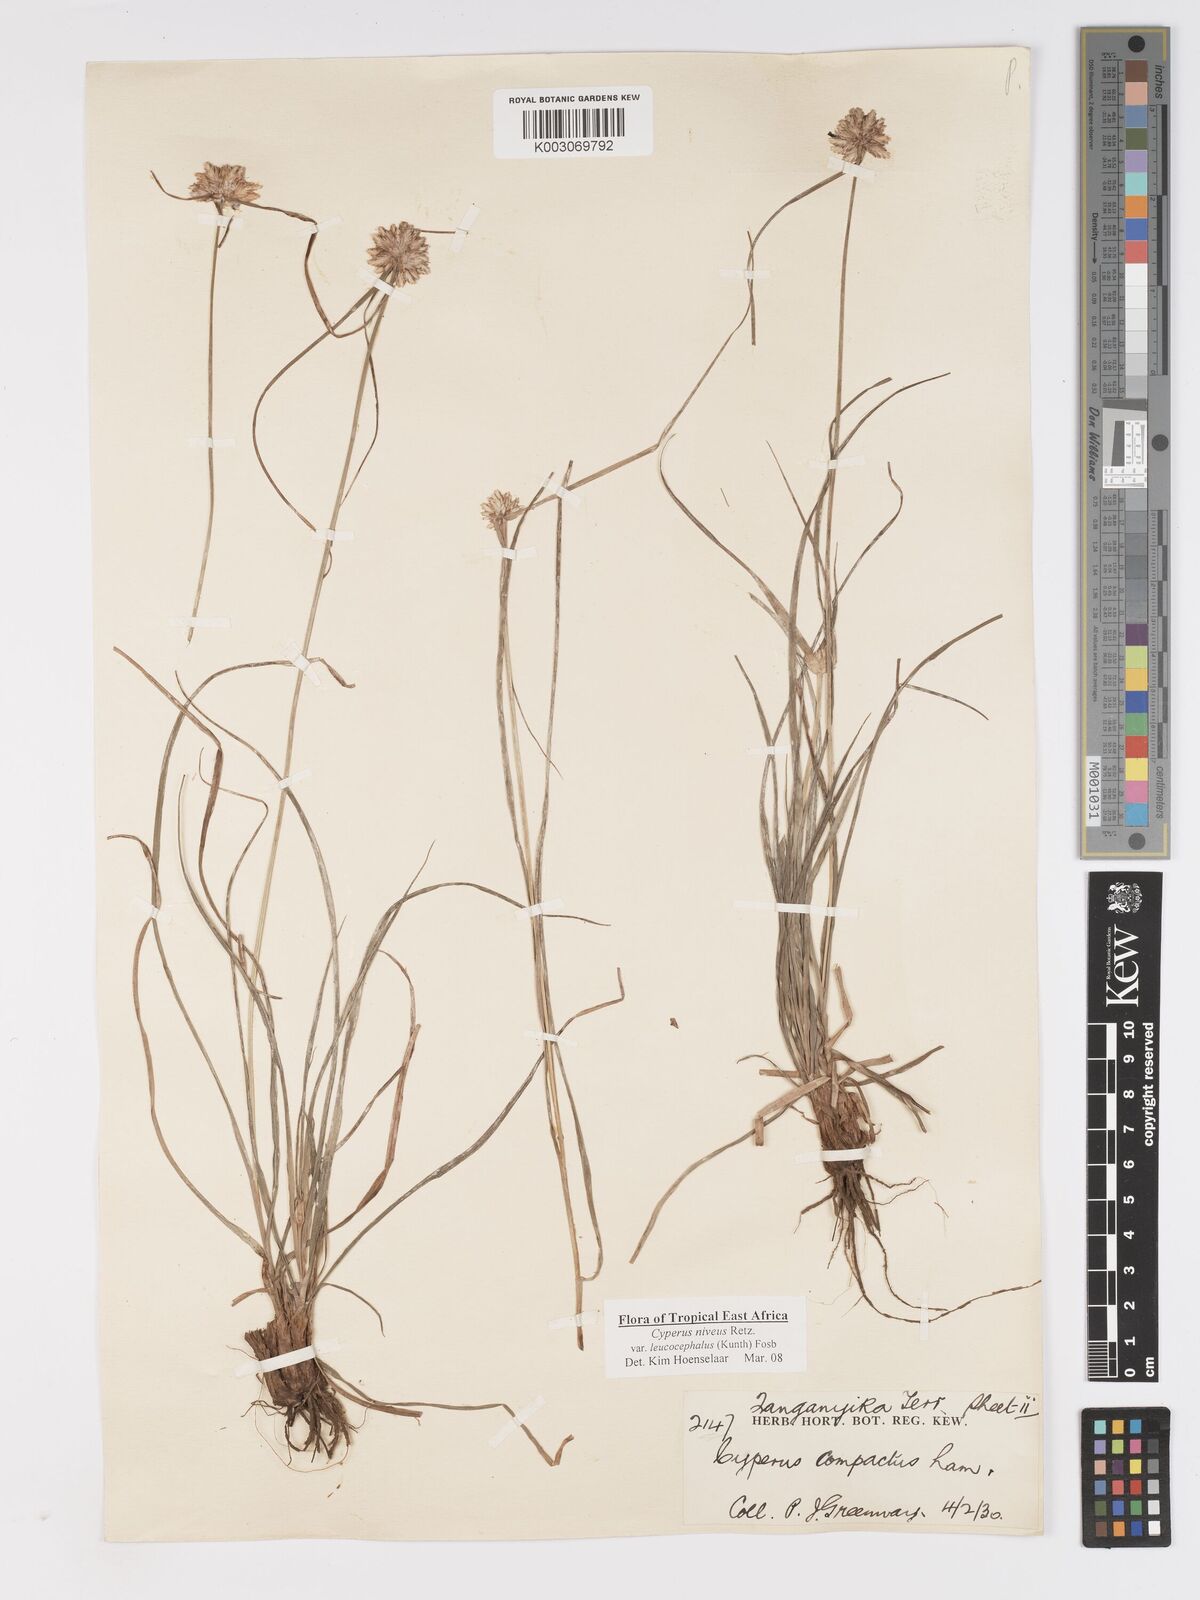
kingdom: Plantae
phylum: Tracheophyta
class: Liliopsida
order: Poales
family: Cyperaceae
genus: Cyperus
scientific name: Cyperus niveus
